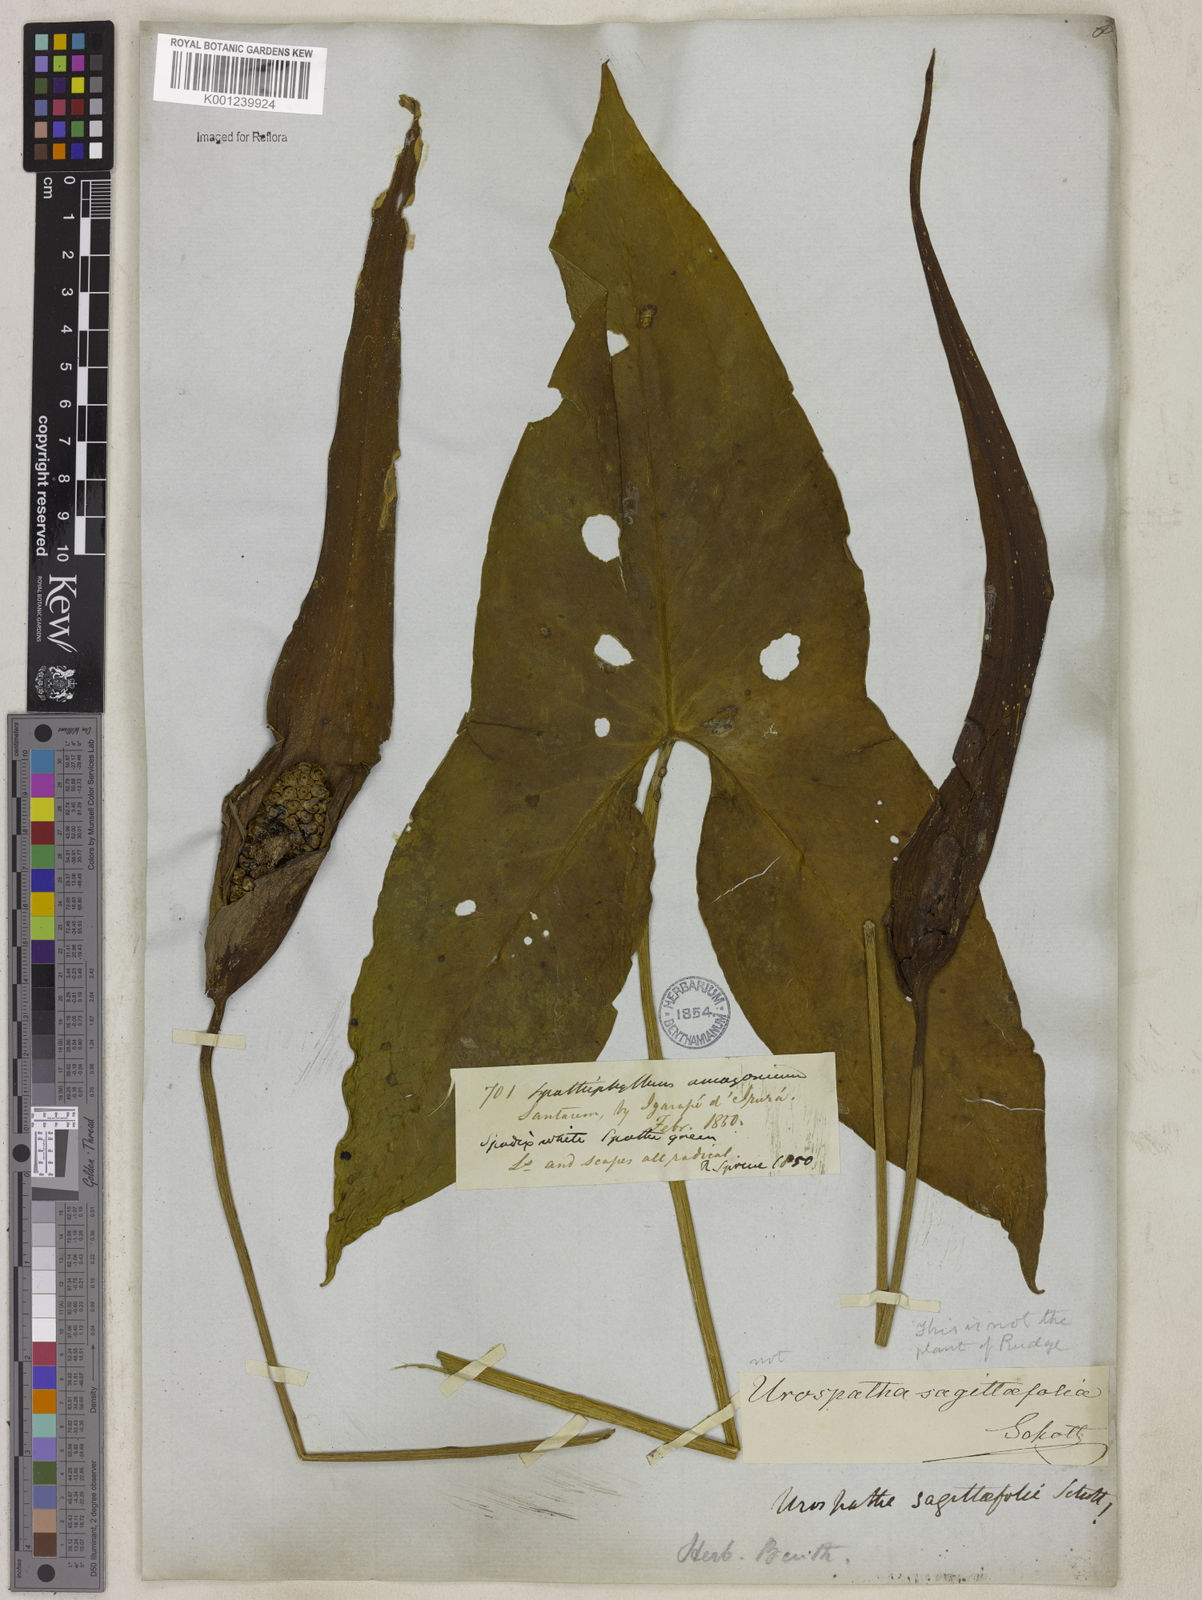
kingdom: Plantae
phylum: Tracheophyta
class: Liliopsida
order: Alismatales
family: Araceae
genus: Urospatha
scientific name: Urospatha sagittifolia
